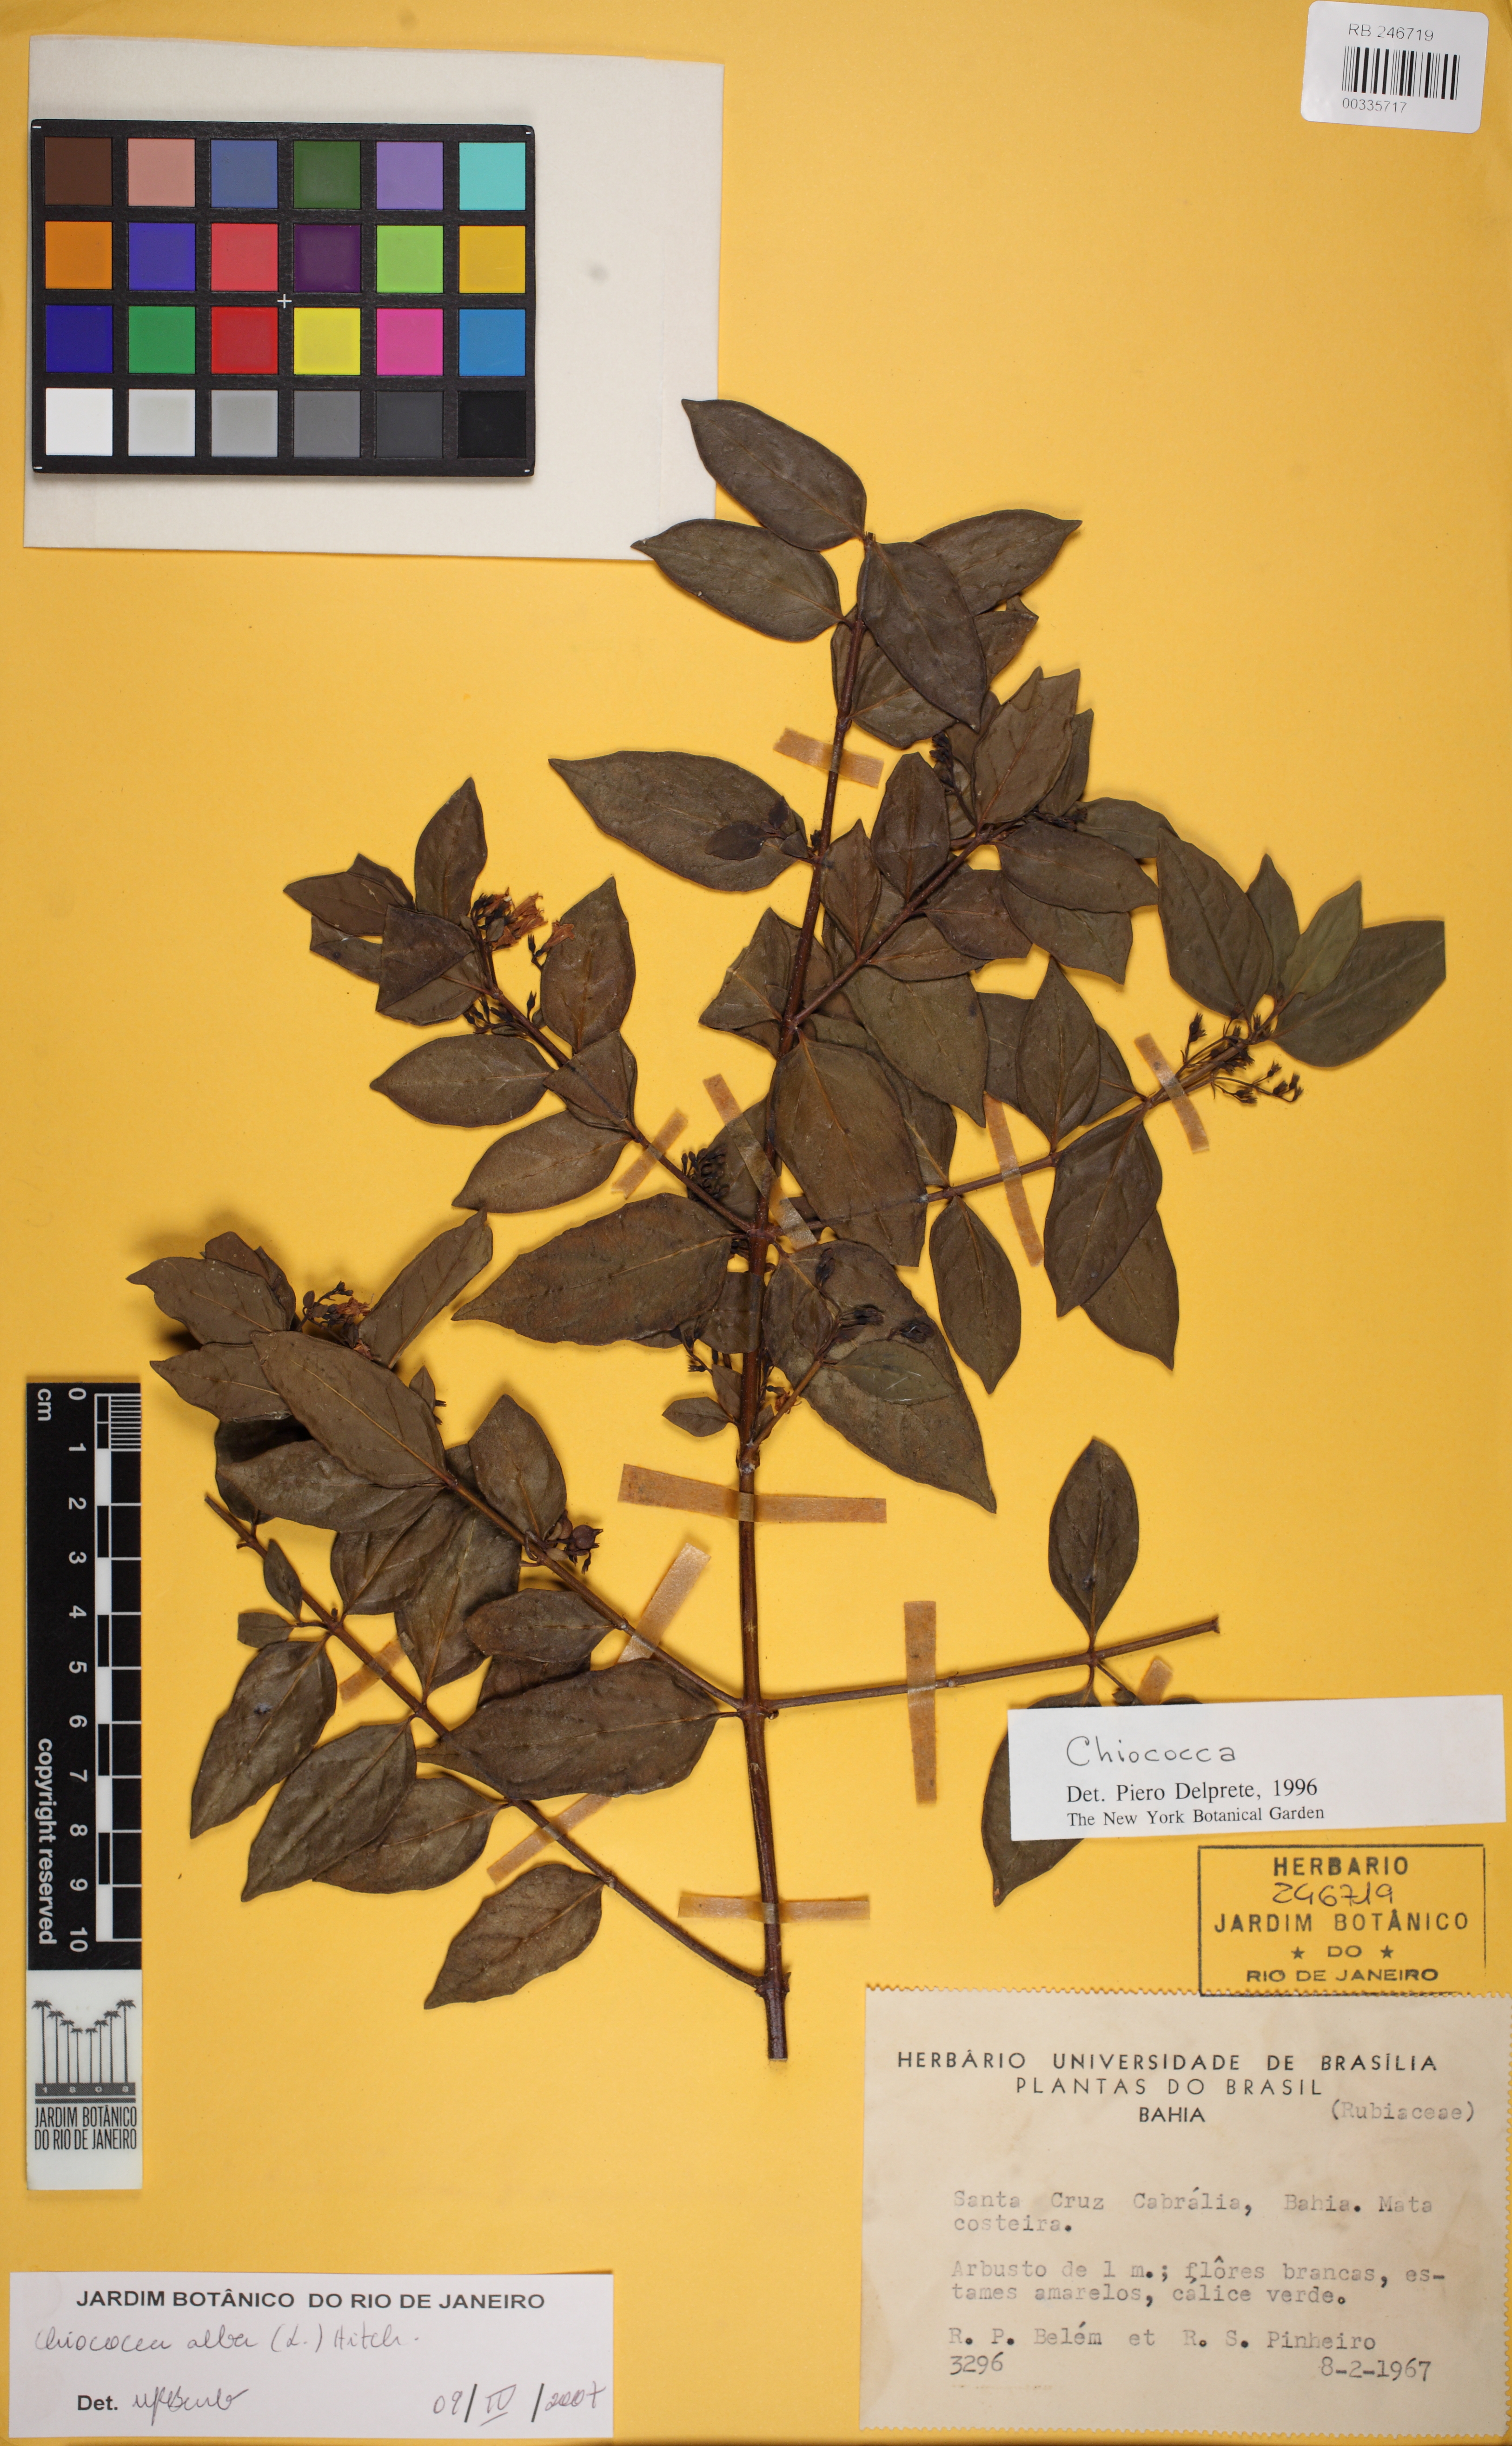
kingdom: Plantae
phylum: Tracheophyta
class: Magnoliopsida
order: Gentianales
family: Rubiaceae
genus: Chiococca
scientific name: Chiococca alba
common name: Snowberry
